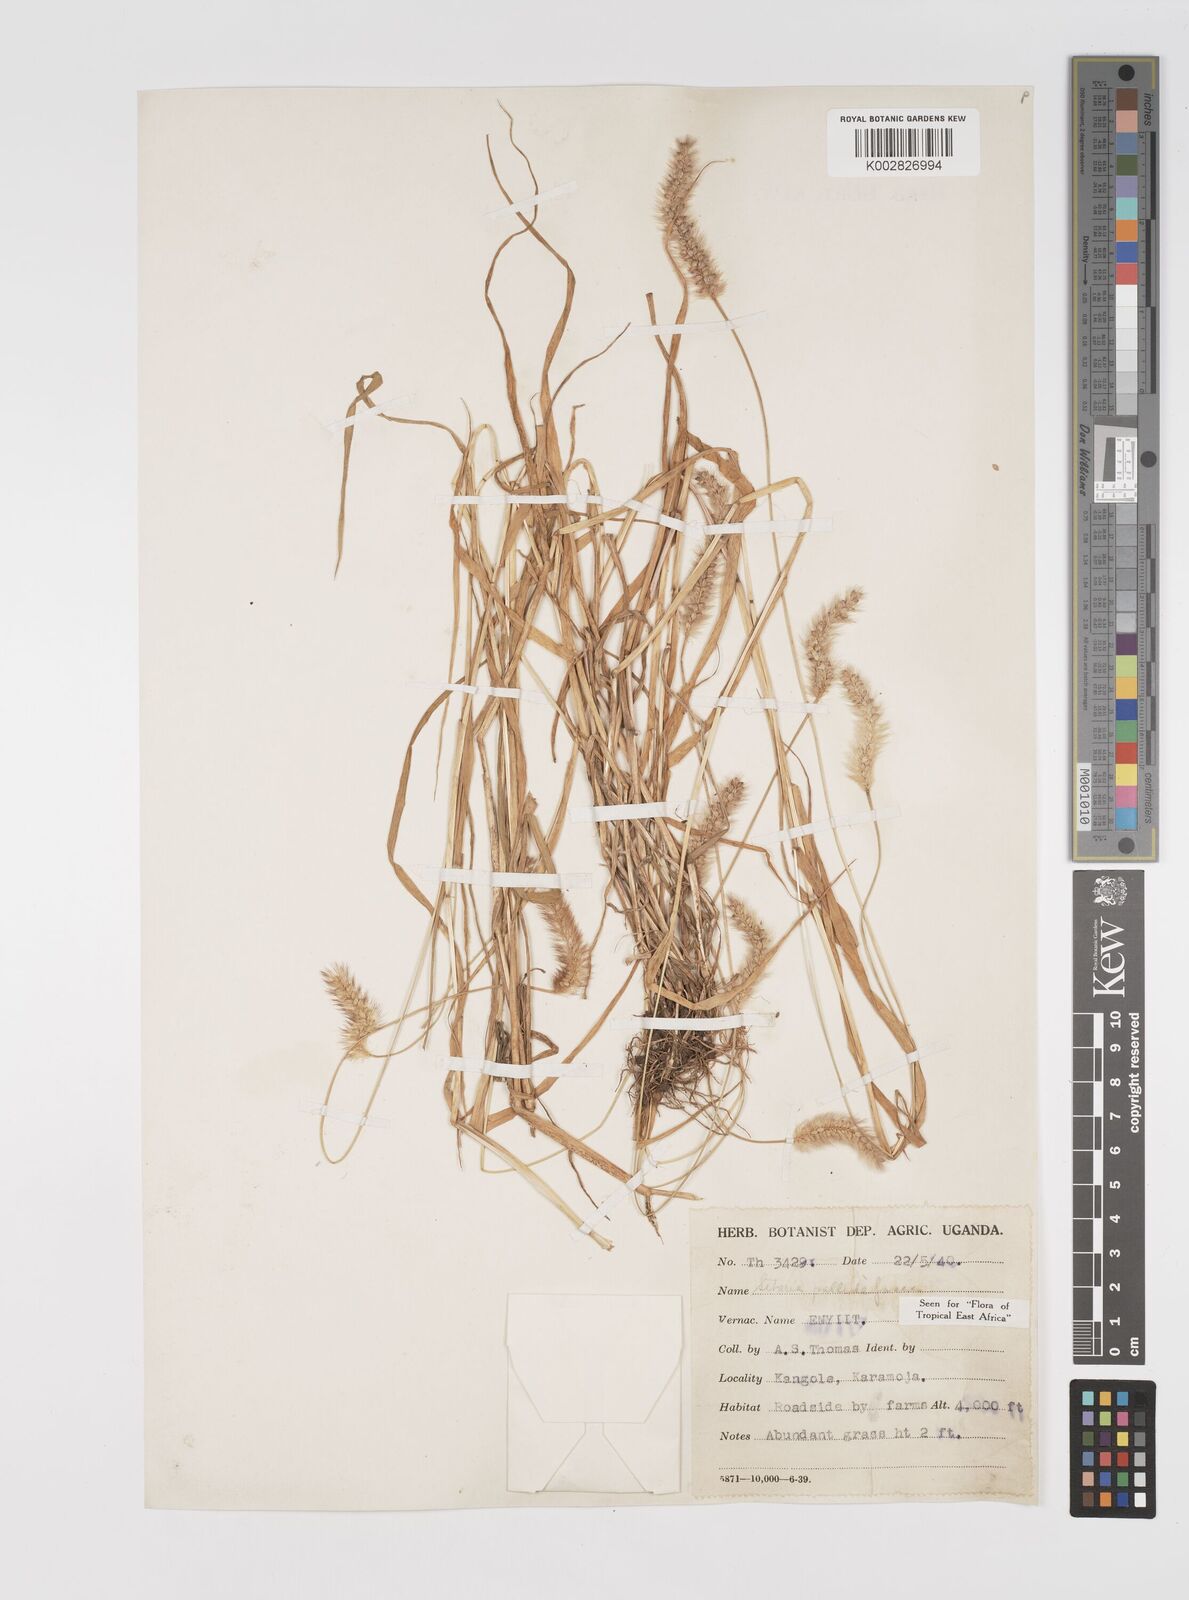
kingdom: Plantae
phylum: Tracheophyta
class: Liliopsida
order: Poales
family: Poaceae
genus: Setaria
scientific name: Setaria pumila
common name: Yellow bristle-grass
